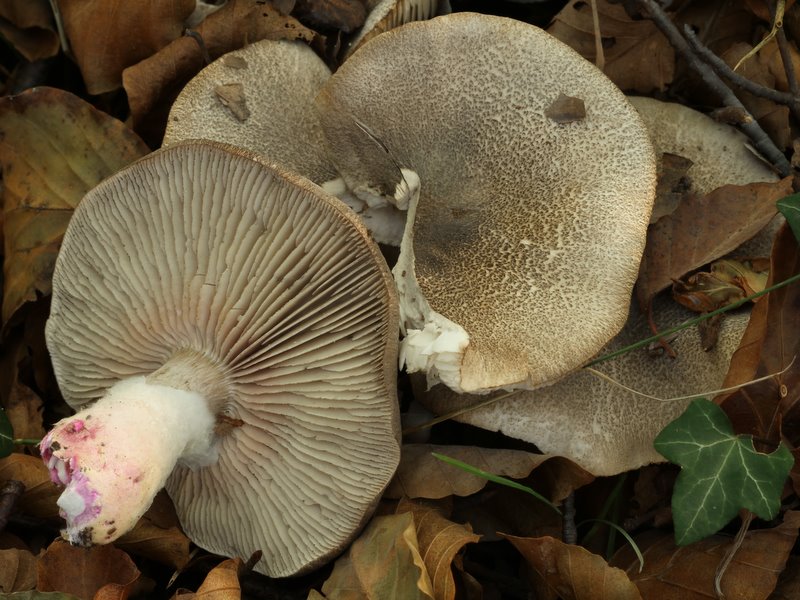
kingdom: Fungi
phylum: Basidiomycota
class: Agaricomycetes
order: Agaricales
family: Tricholomataceae
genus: Tricholoma
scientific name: Tricholoma orirubens
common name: rødbladet ridderhat
